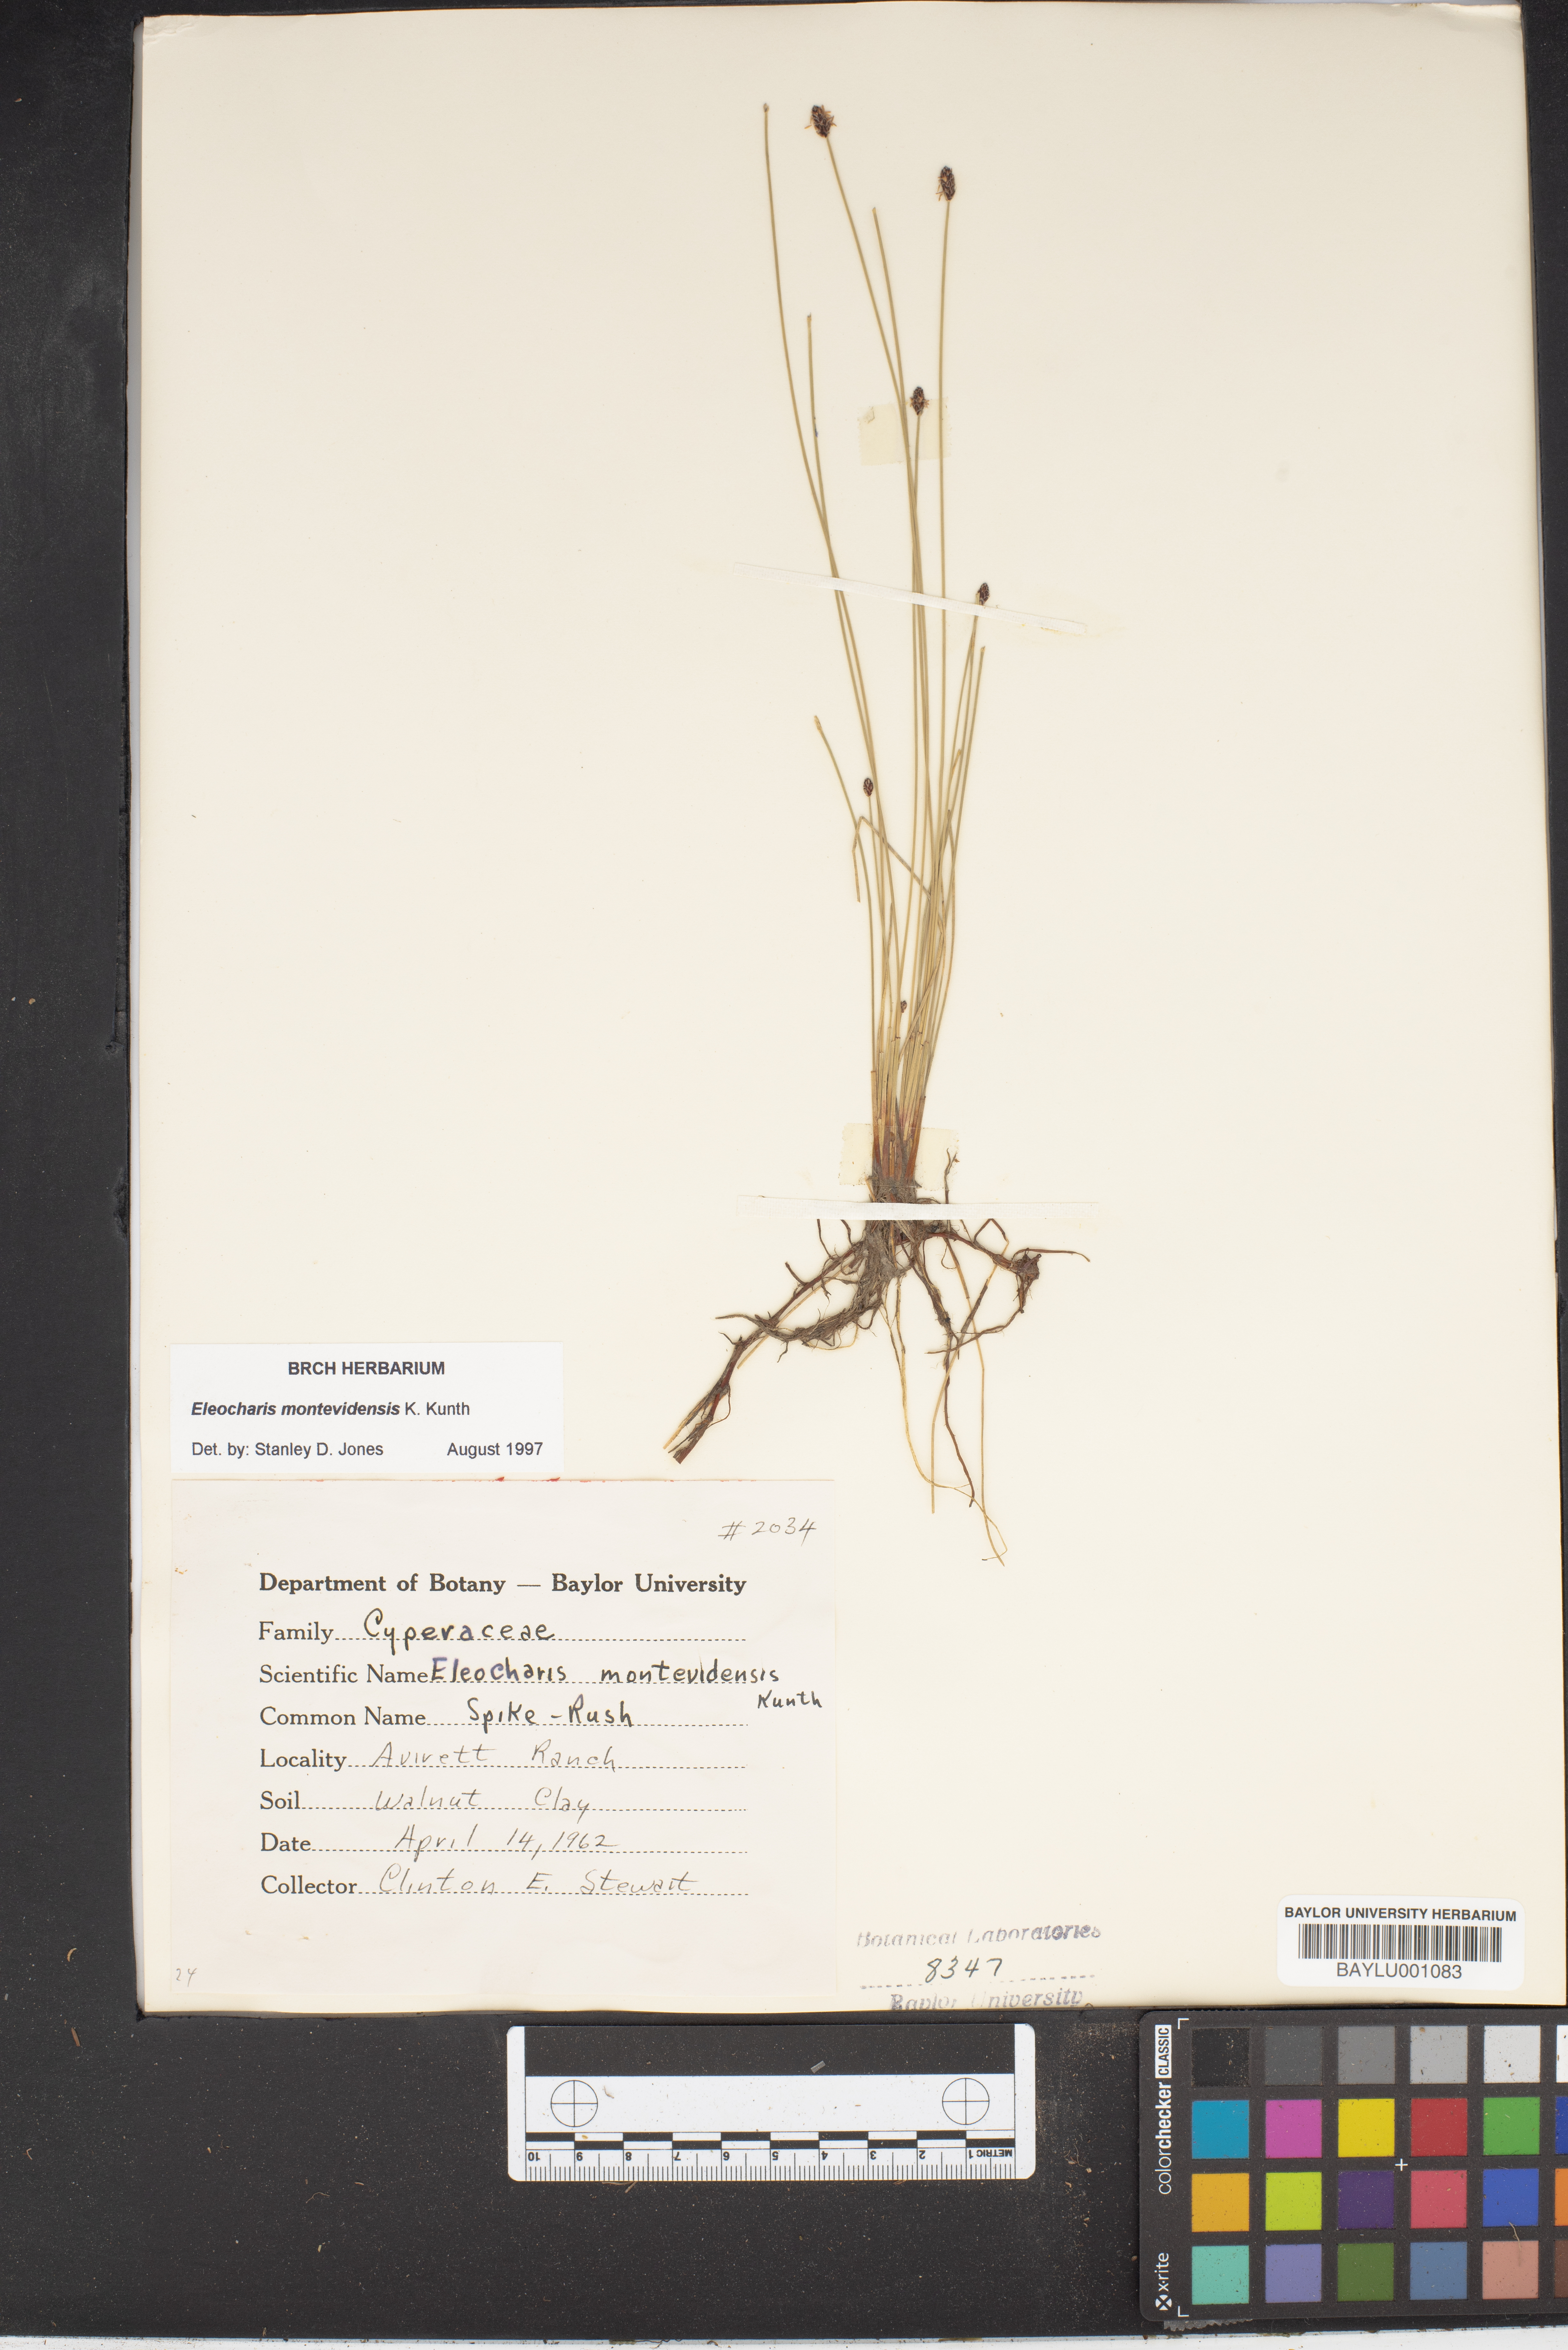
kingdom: Plantae
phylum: Tracheophyta
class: Liliopsida
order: Poales
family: Cyperaceae
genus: Eleocharis
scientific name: Eleocharis montevidensis
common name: Sand spike-rush
